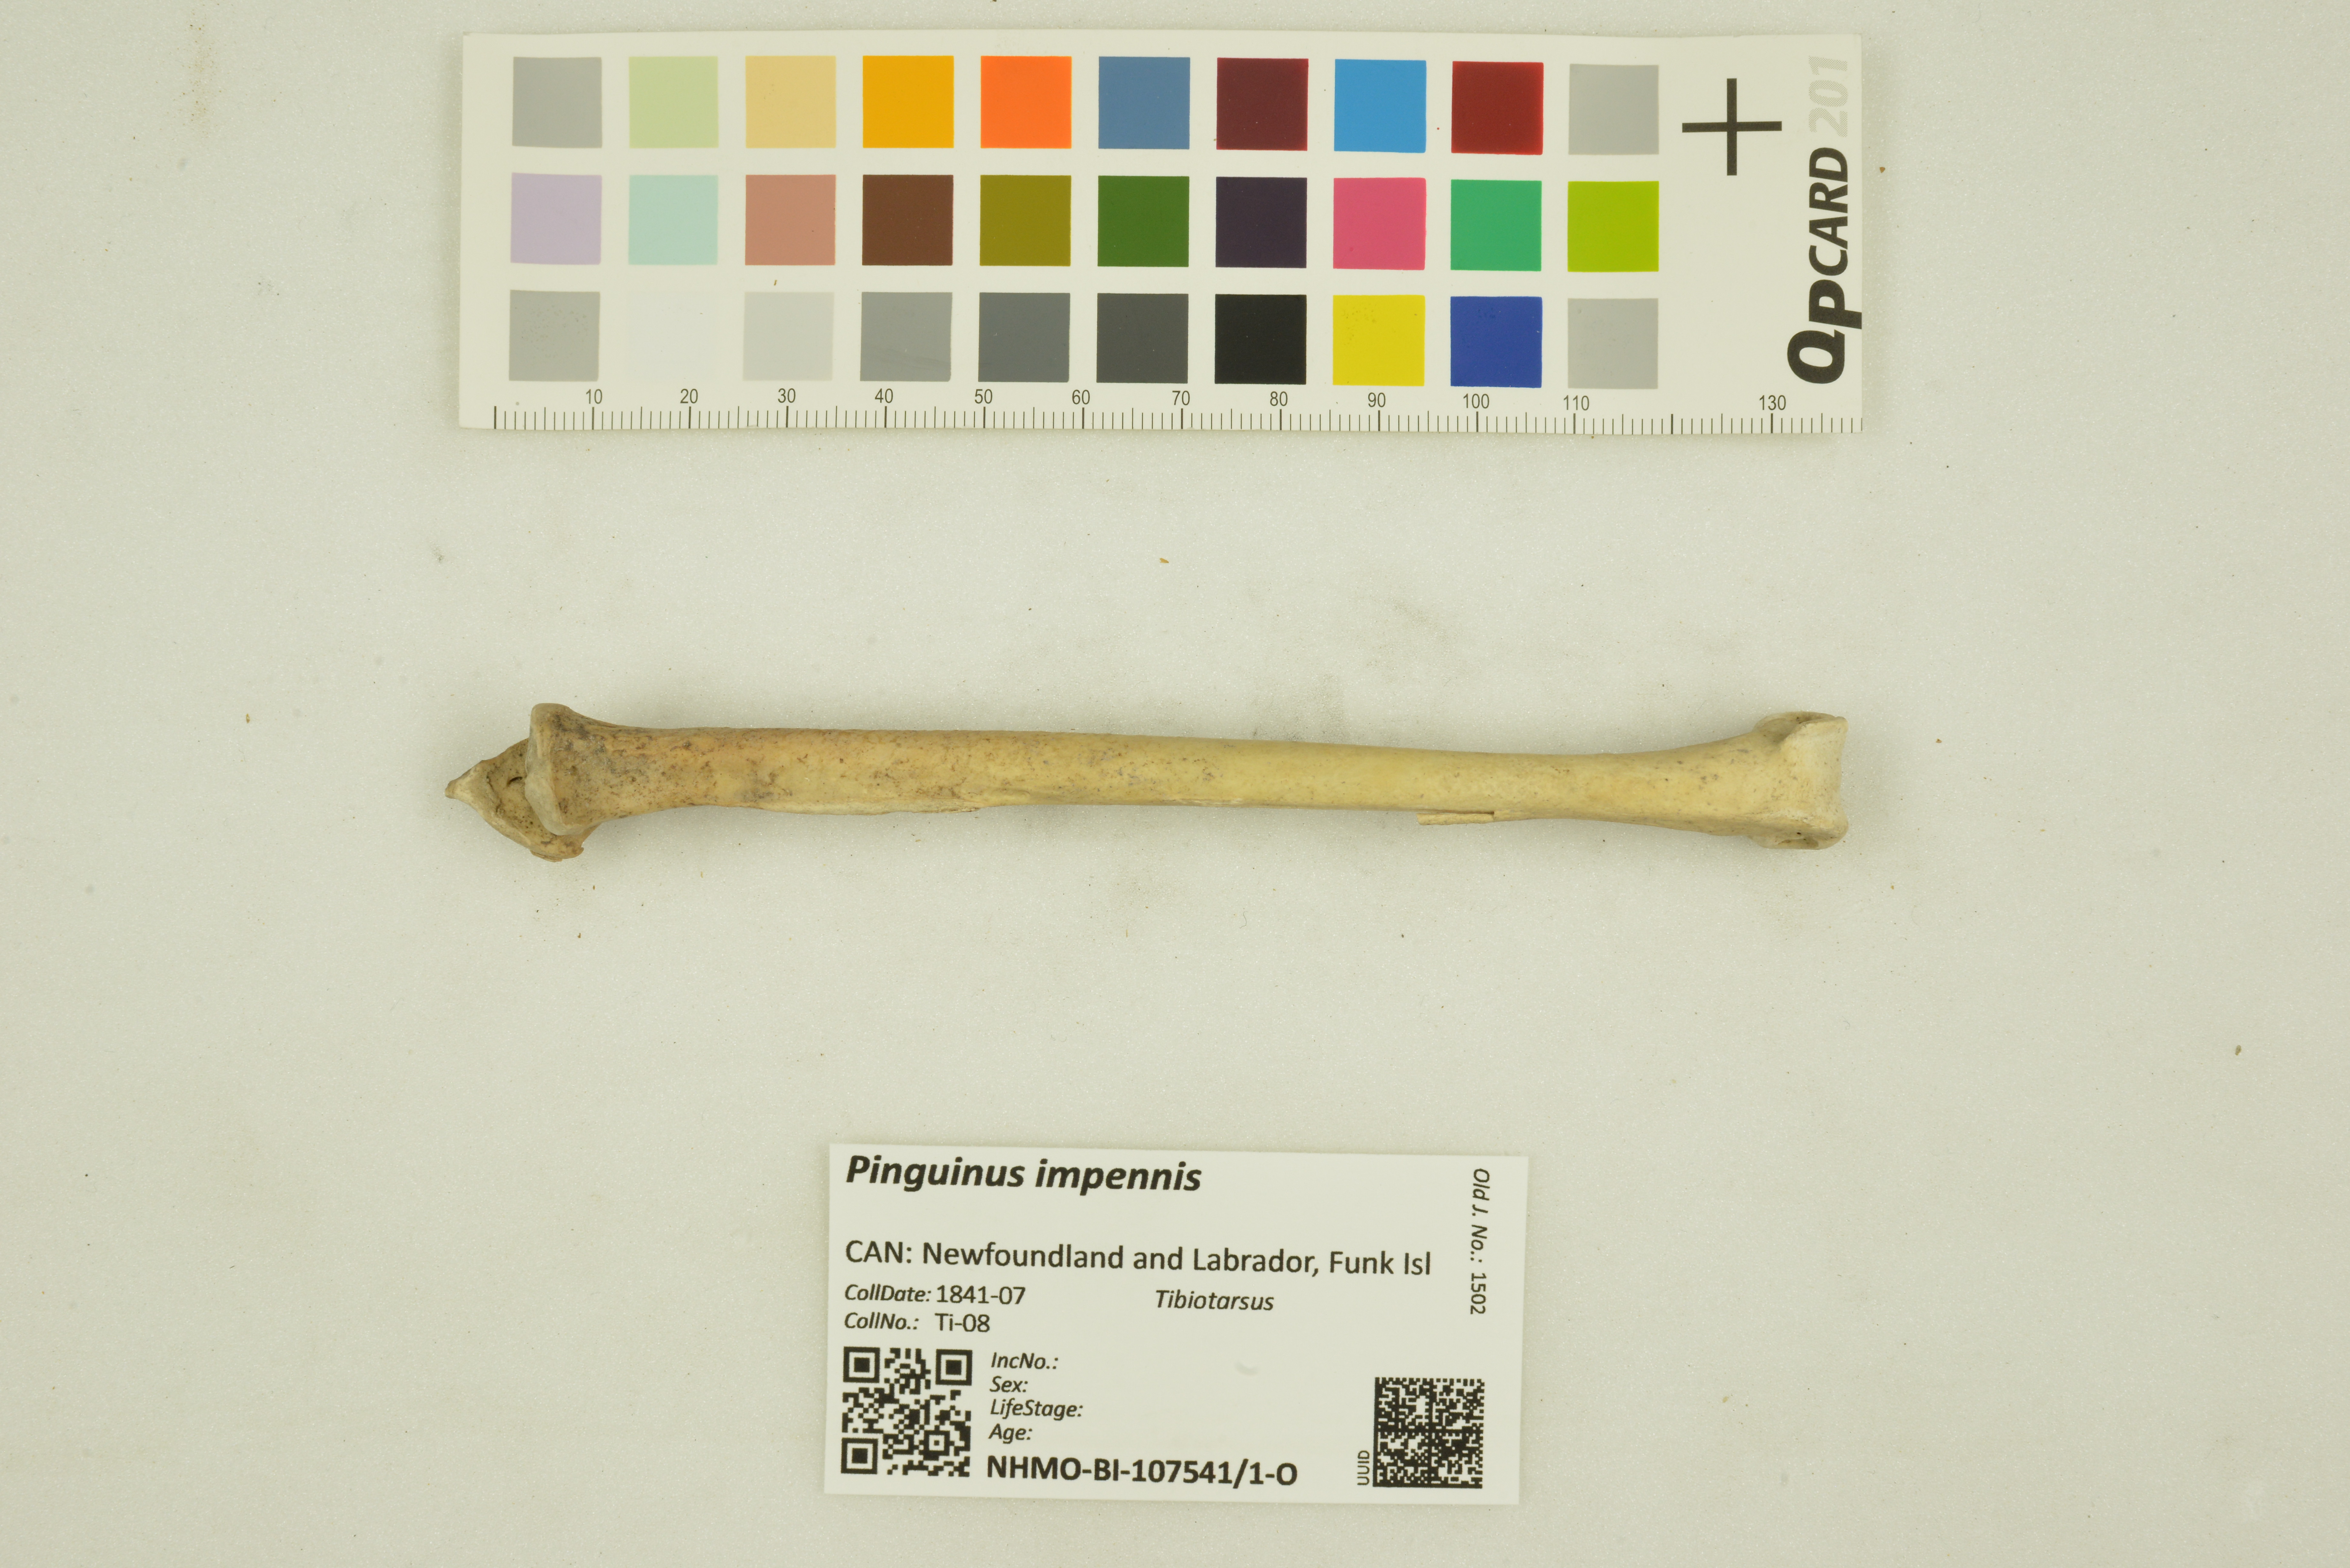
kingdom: Animalia
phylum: Chordata
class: Aves
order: Charadriiformes
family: Alcidae
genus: Pinguinus
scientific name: Pinguinus impennis
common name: Great auk
